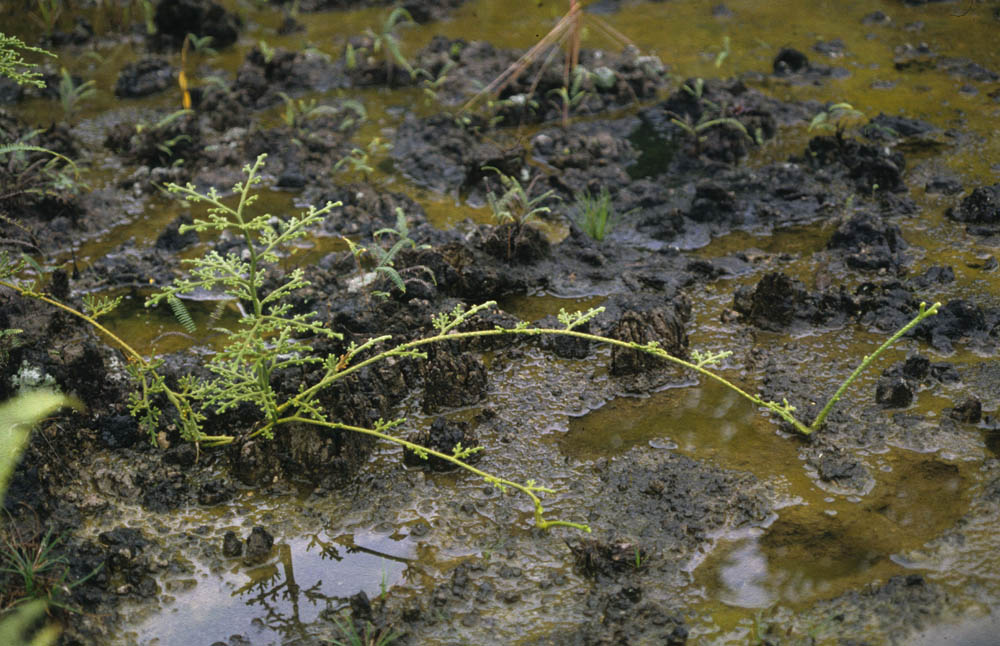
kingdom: Plantae
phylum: Tracheophyta
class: Lycopodiopsida
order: Lycopodiales
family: Lycopodiaceae
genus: Palhinhaea
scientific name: Palhinhaea trianae
